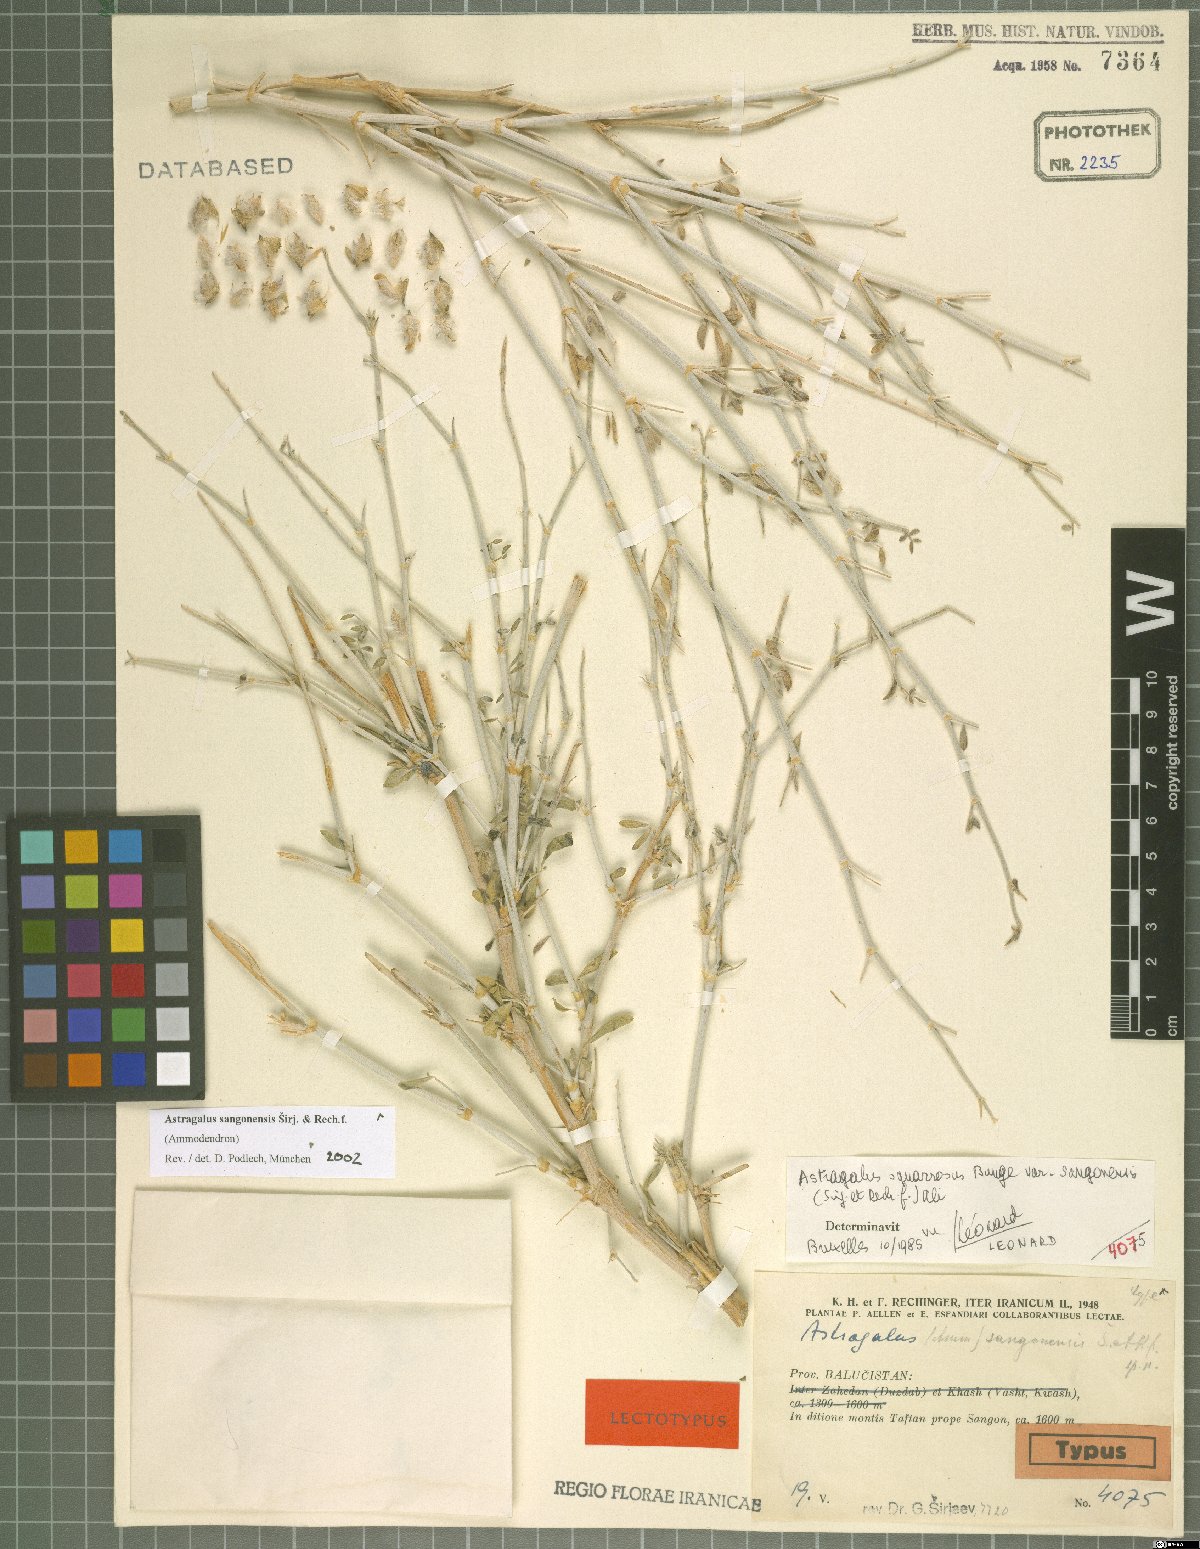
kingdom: Plantae
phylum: Tracheophyta
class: Magnoliopsida
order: Fabales
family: Fabaceae
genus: Astragalus
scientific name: Astragalus sangonensis
